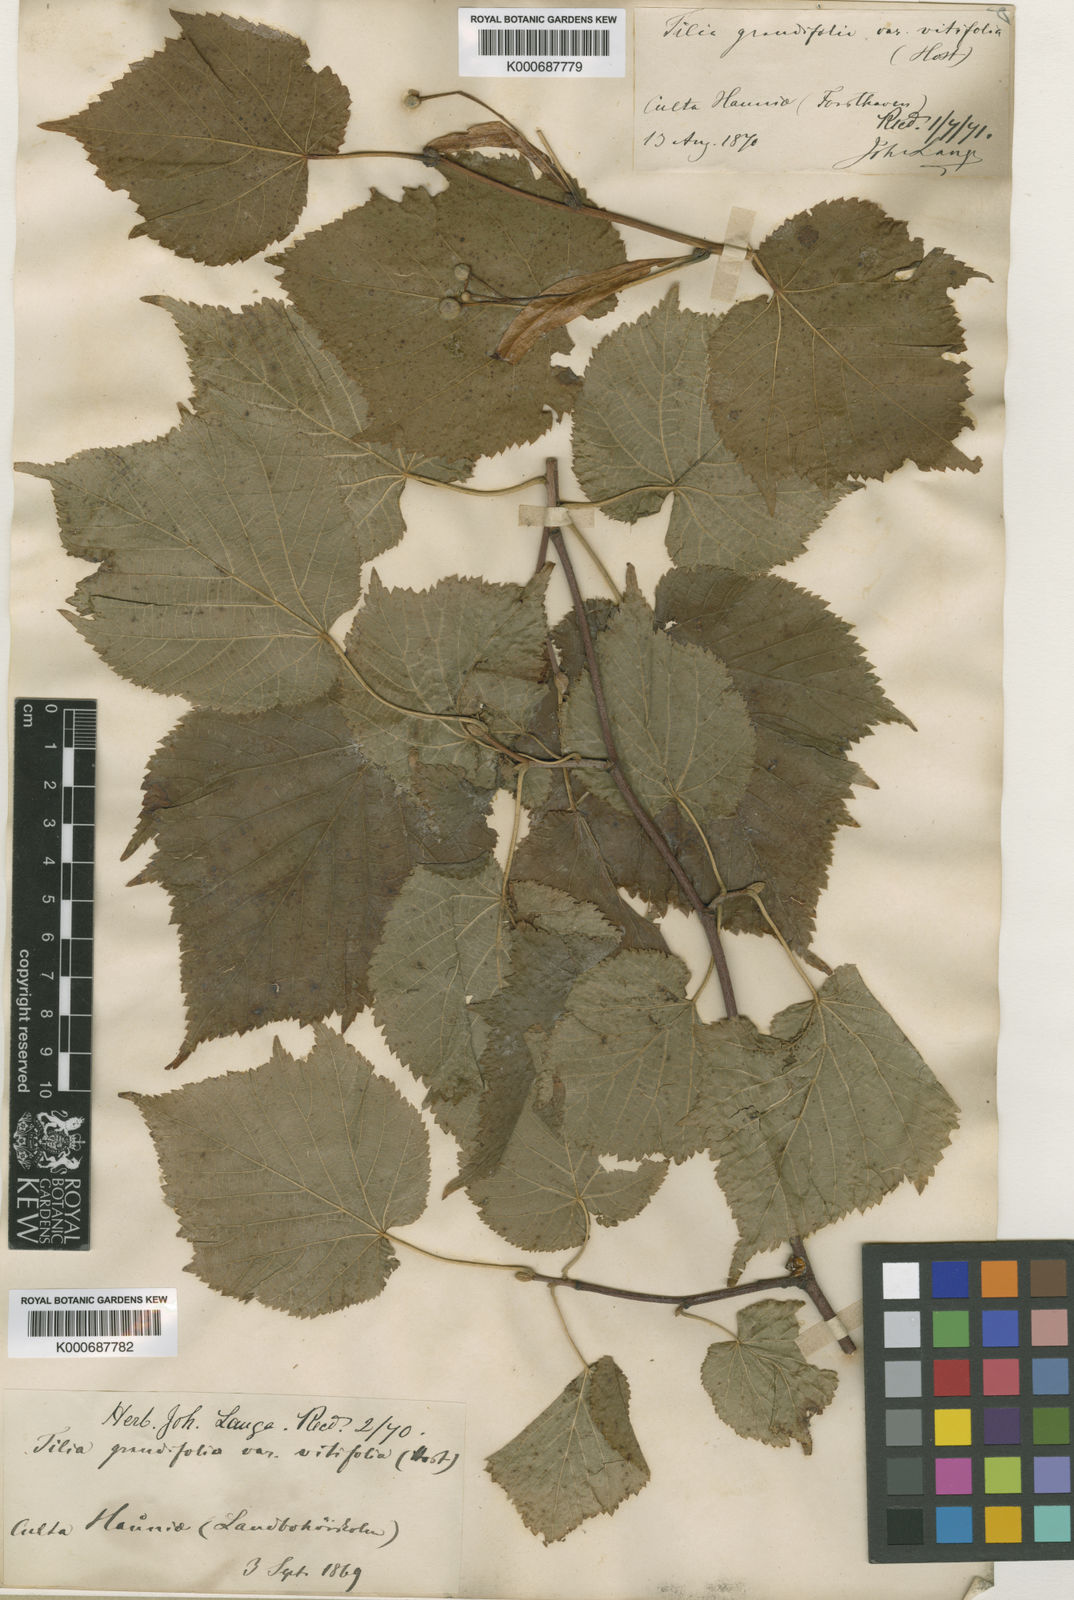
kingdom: Plantae
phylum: Tracheophyta
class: Magnoliopsida
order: Malvales
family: Malvaceae
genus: Tilia
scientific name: Tilia platyphyllos
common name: Large-leaved lime
